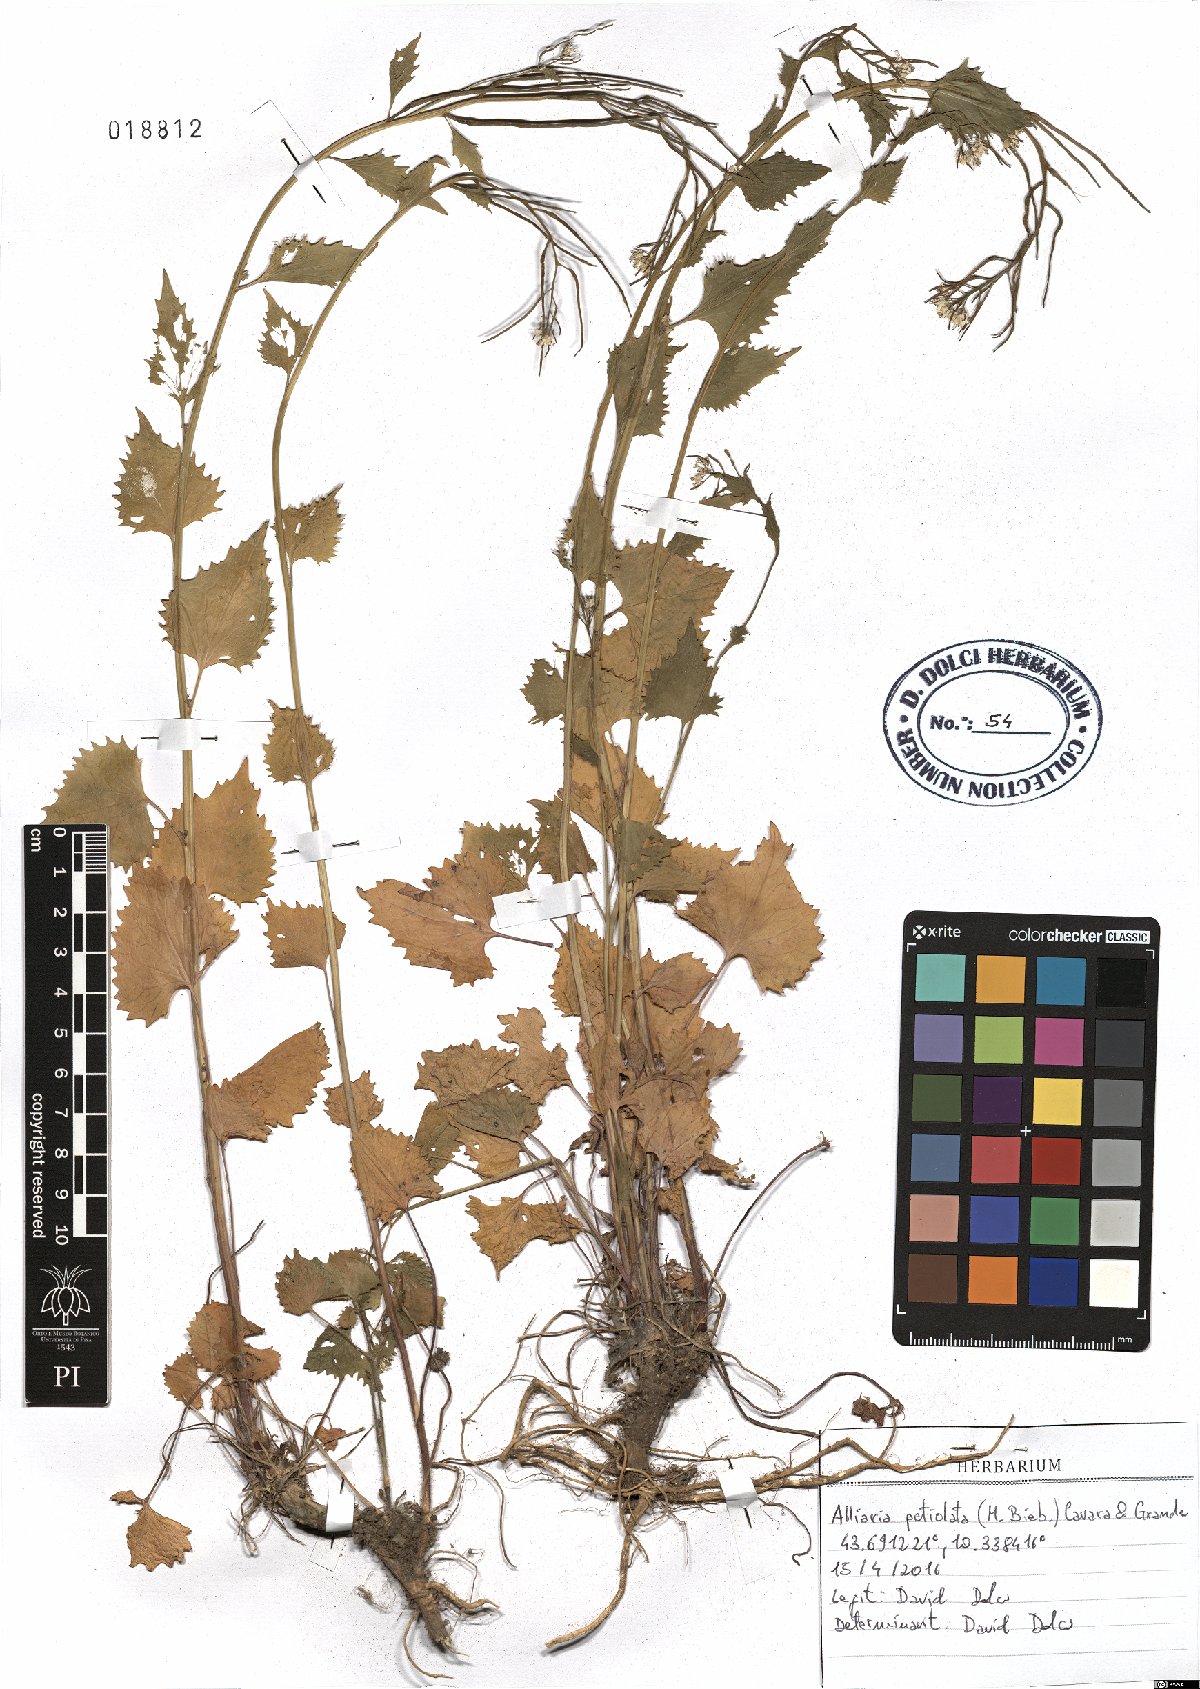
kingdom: Plantae
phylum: Tracheophyta
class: Magnoliopsida
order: Brassicales
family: Brassicaceae
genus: Alliaria
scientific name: Alliaria petiolata
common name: Garlic mustard
